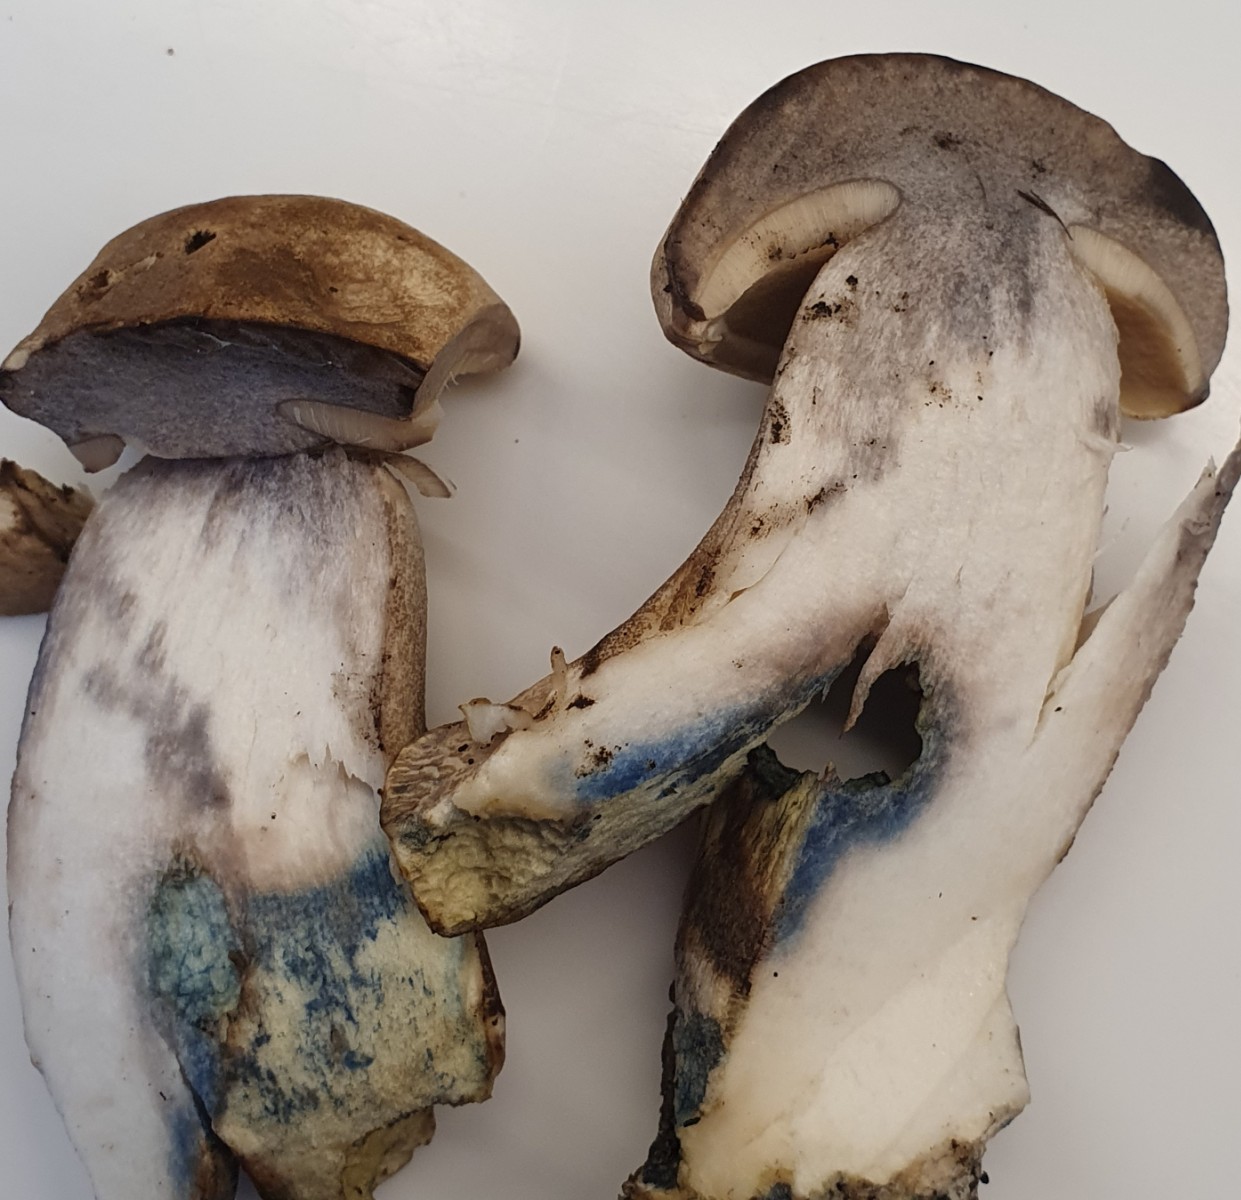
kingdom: Fungi
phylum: Basidiomycota
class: Agaricomycetes
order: Boletales
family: Boletaceae
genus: Leccinum
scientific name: Leccinum duriusculum
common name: poppel-skælrørhat
